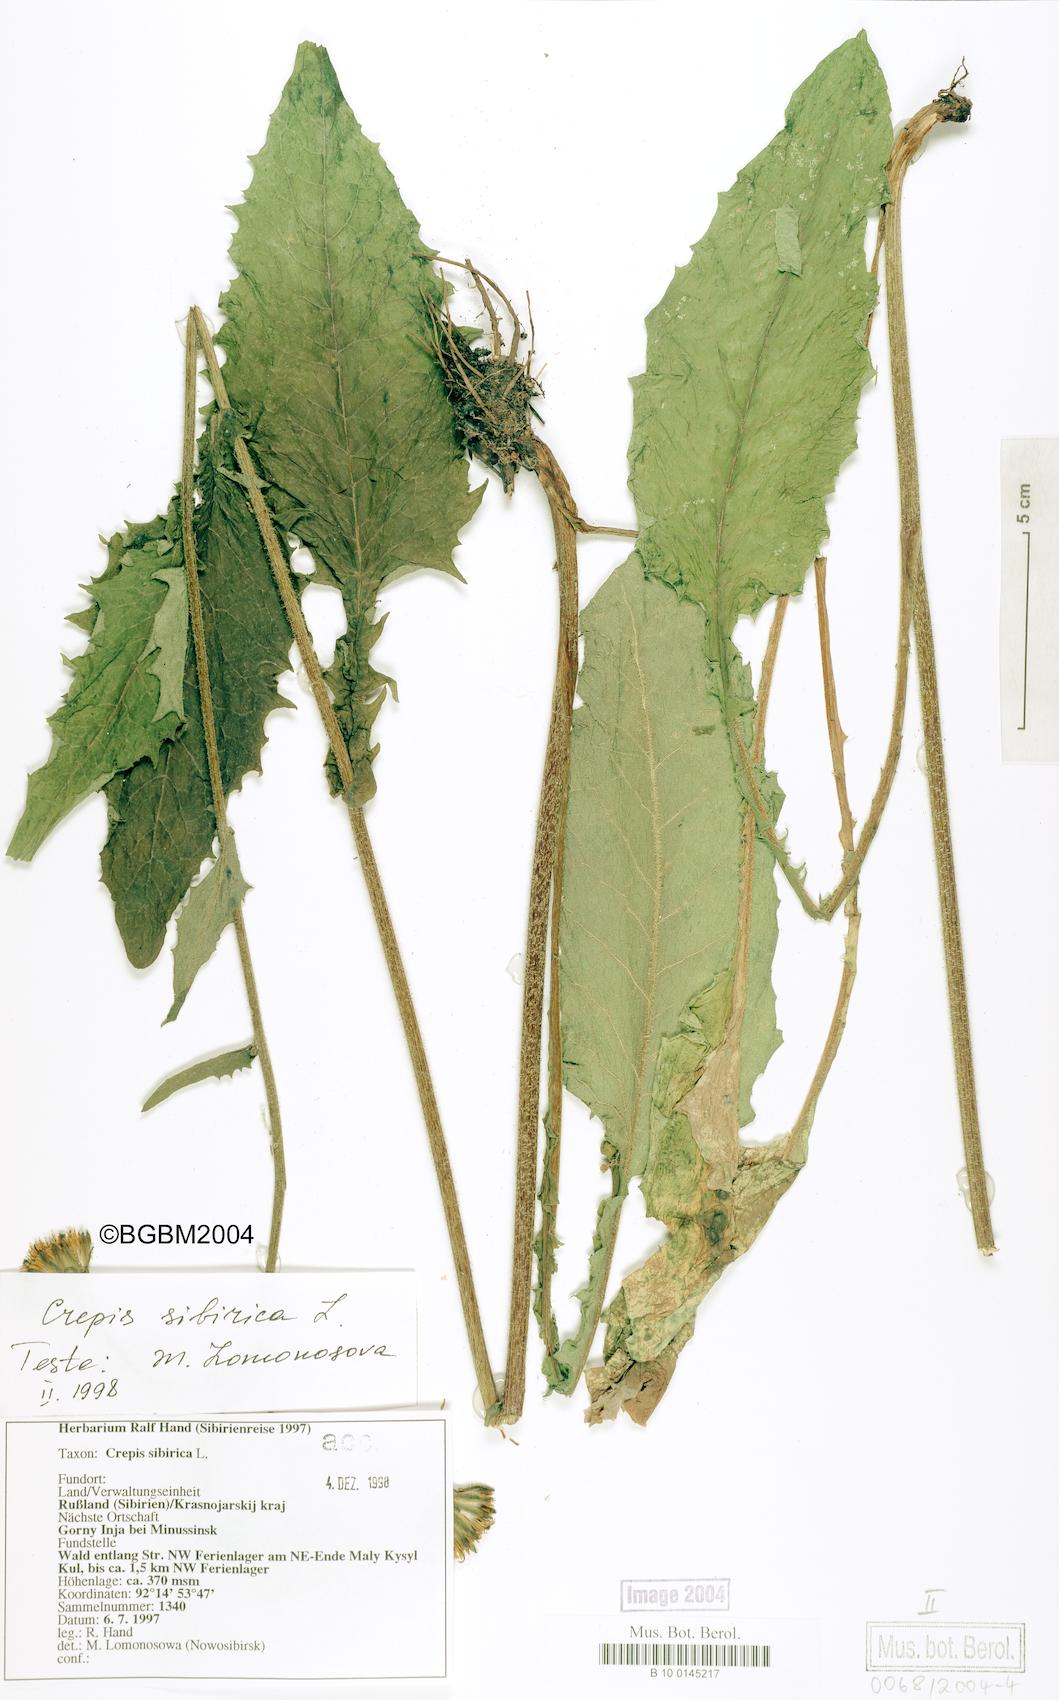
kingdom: Plantae
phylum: Tracheophyta
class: Magnoliopsida
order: Asterales
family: Asteraceae
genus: Crepis
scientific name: Crepis sibirica
